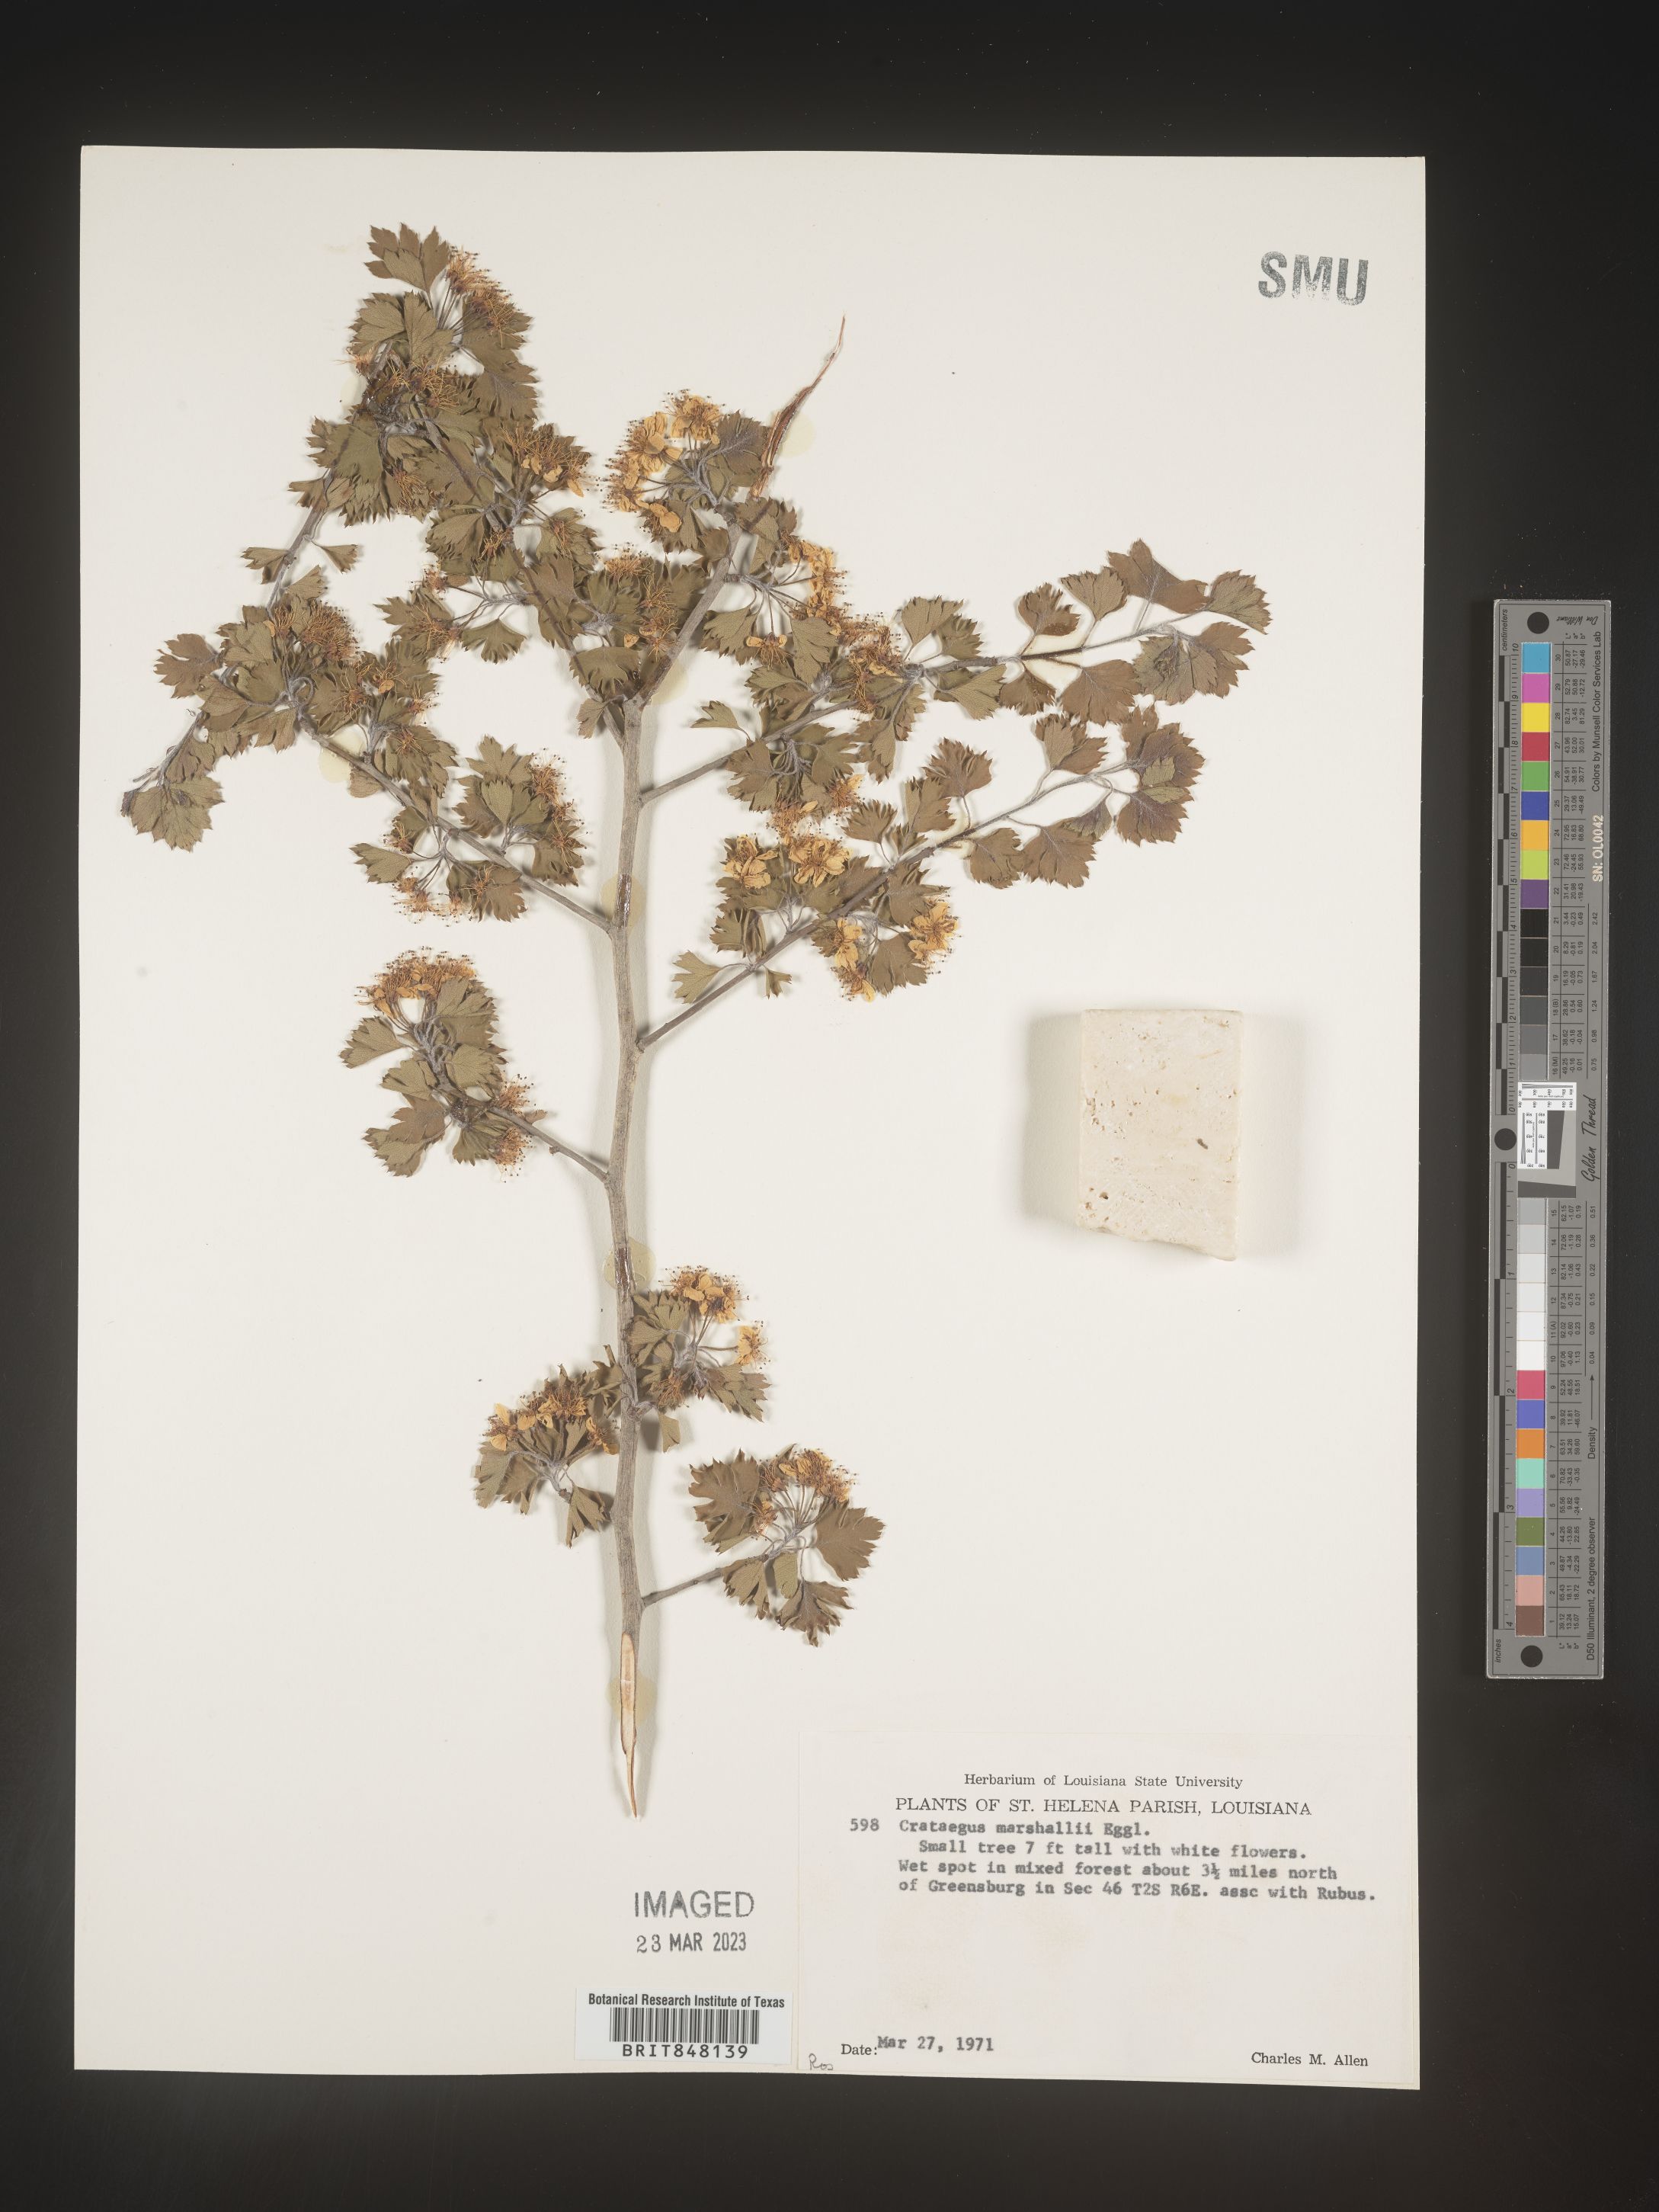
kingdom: Plantae
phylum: Tracheophyta
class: Magnoliopsida
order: Rosales
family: Rosaceae
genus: Crataegus
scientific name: Crataegus marshallii
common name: Parsley-hawthorn
